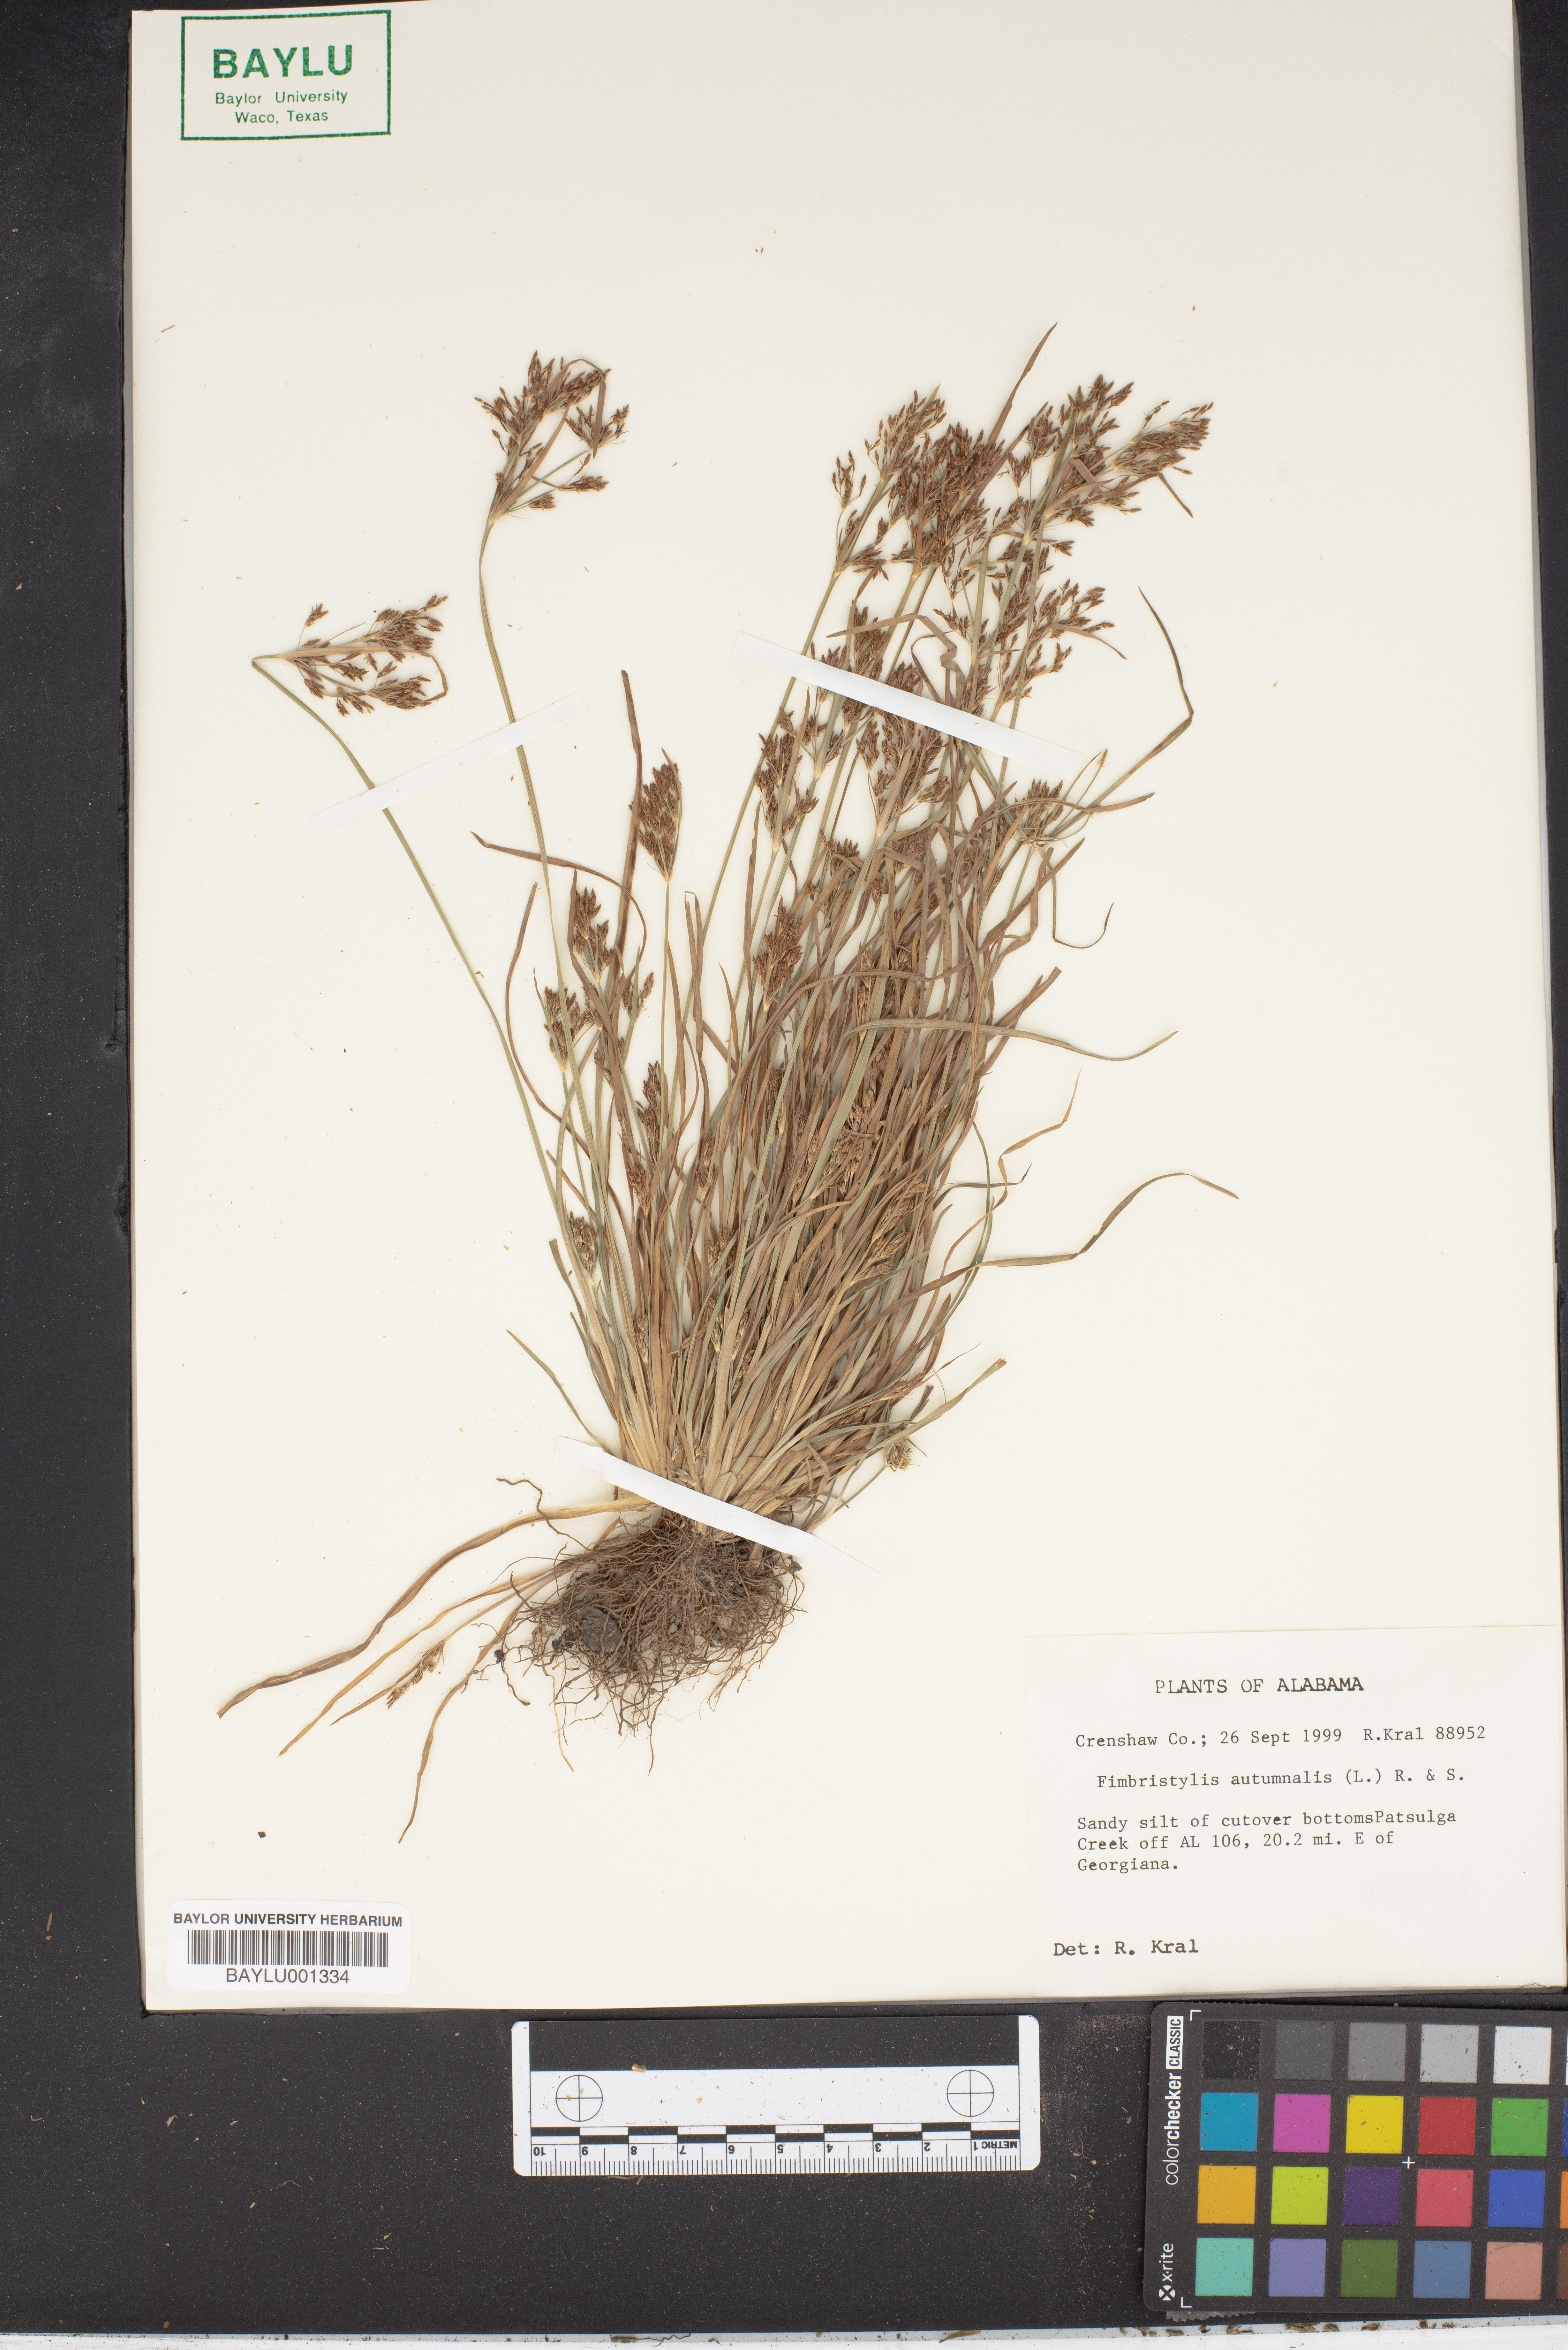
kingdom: Plantae
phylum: Tracheophyta
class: Liliopsida
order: Poales
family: Cyperaceae
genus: Fimbristylis
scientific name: Fimbristylis autumnalis
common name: Slender fimbristylis
